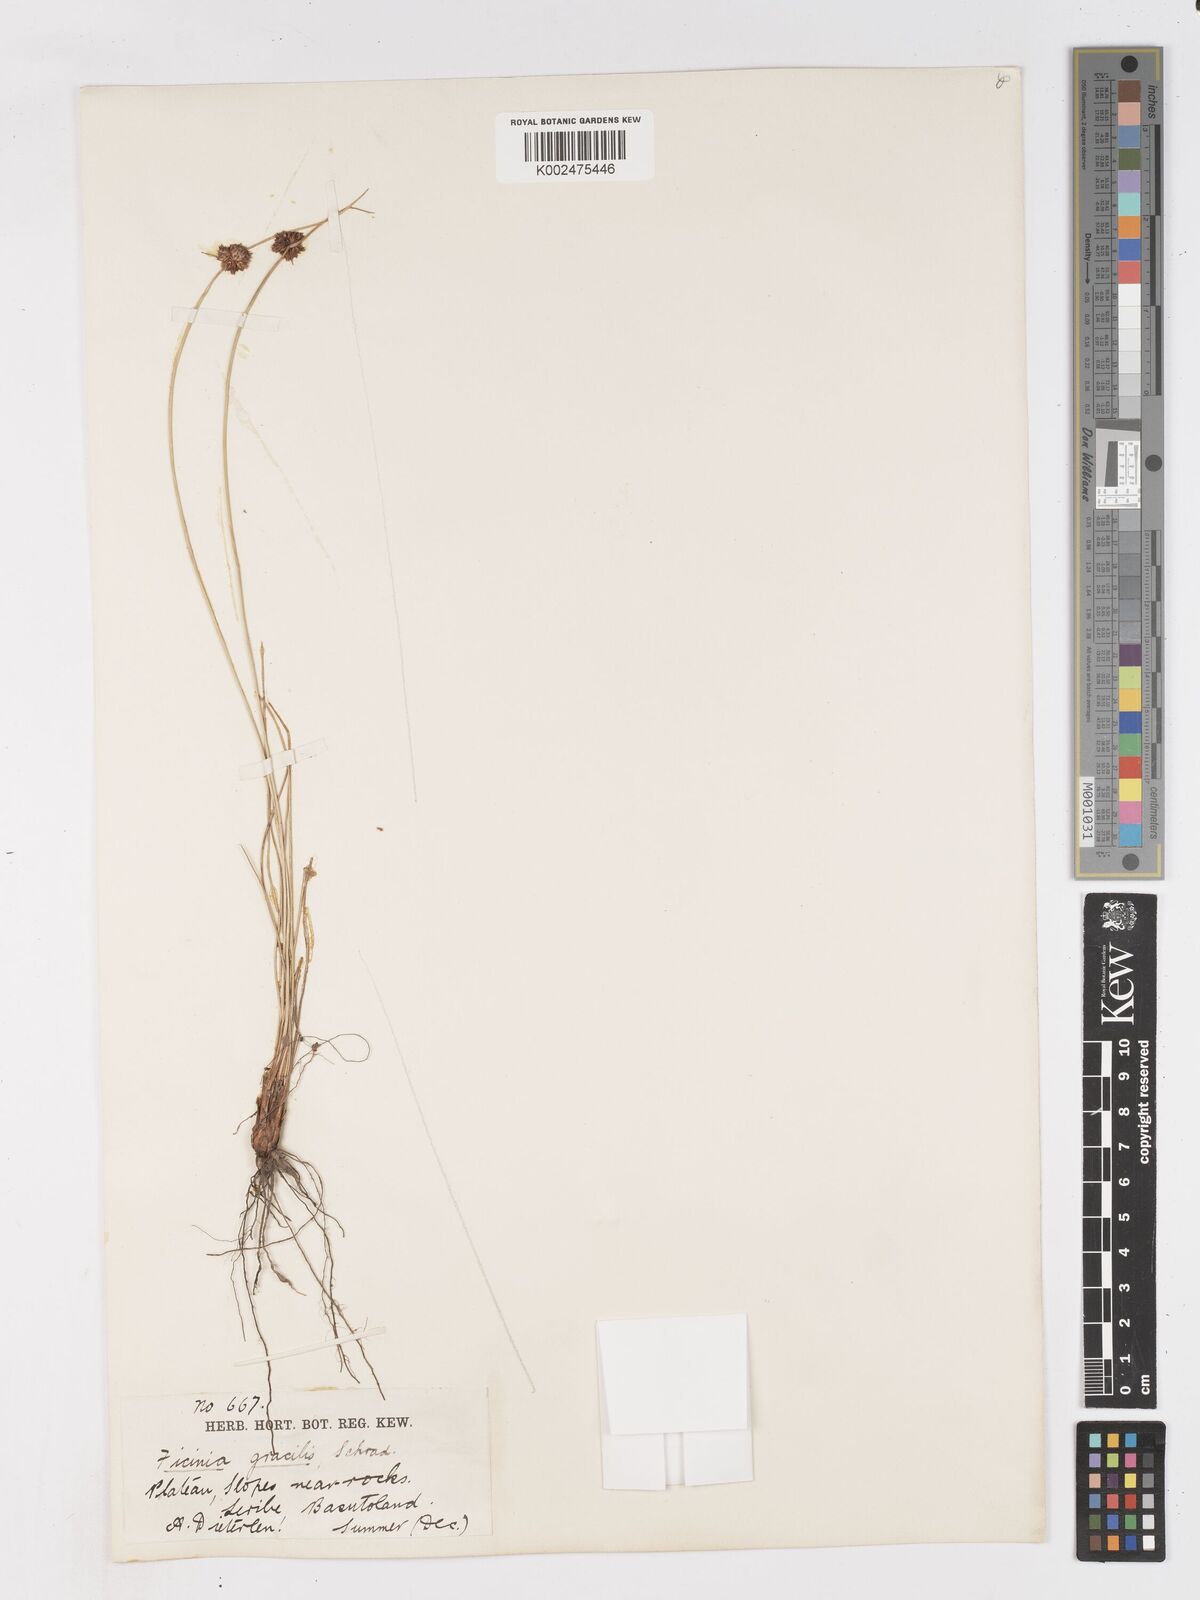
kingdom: Plantae
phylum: Tracheophyta
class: Liliopsida
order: Poales
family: Cyperaceae
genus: Ficinia
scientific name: Ficinia cinnamomea
